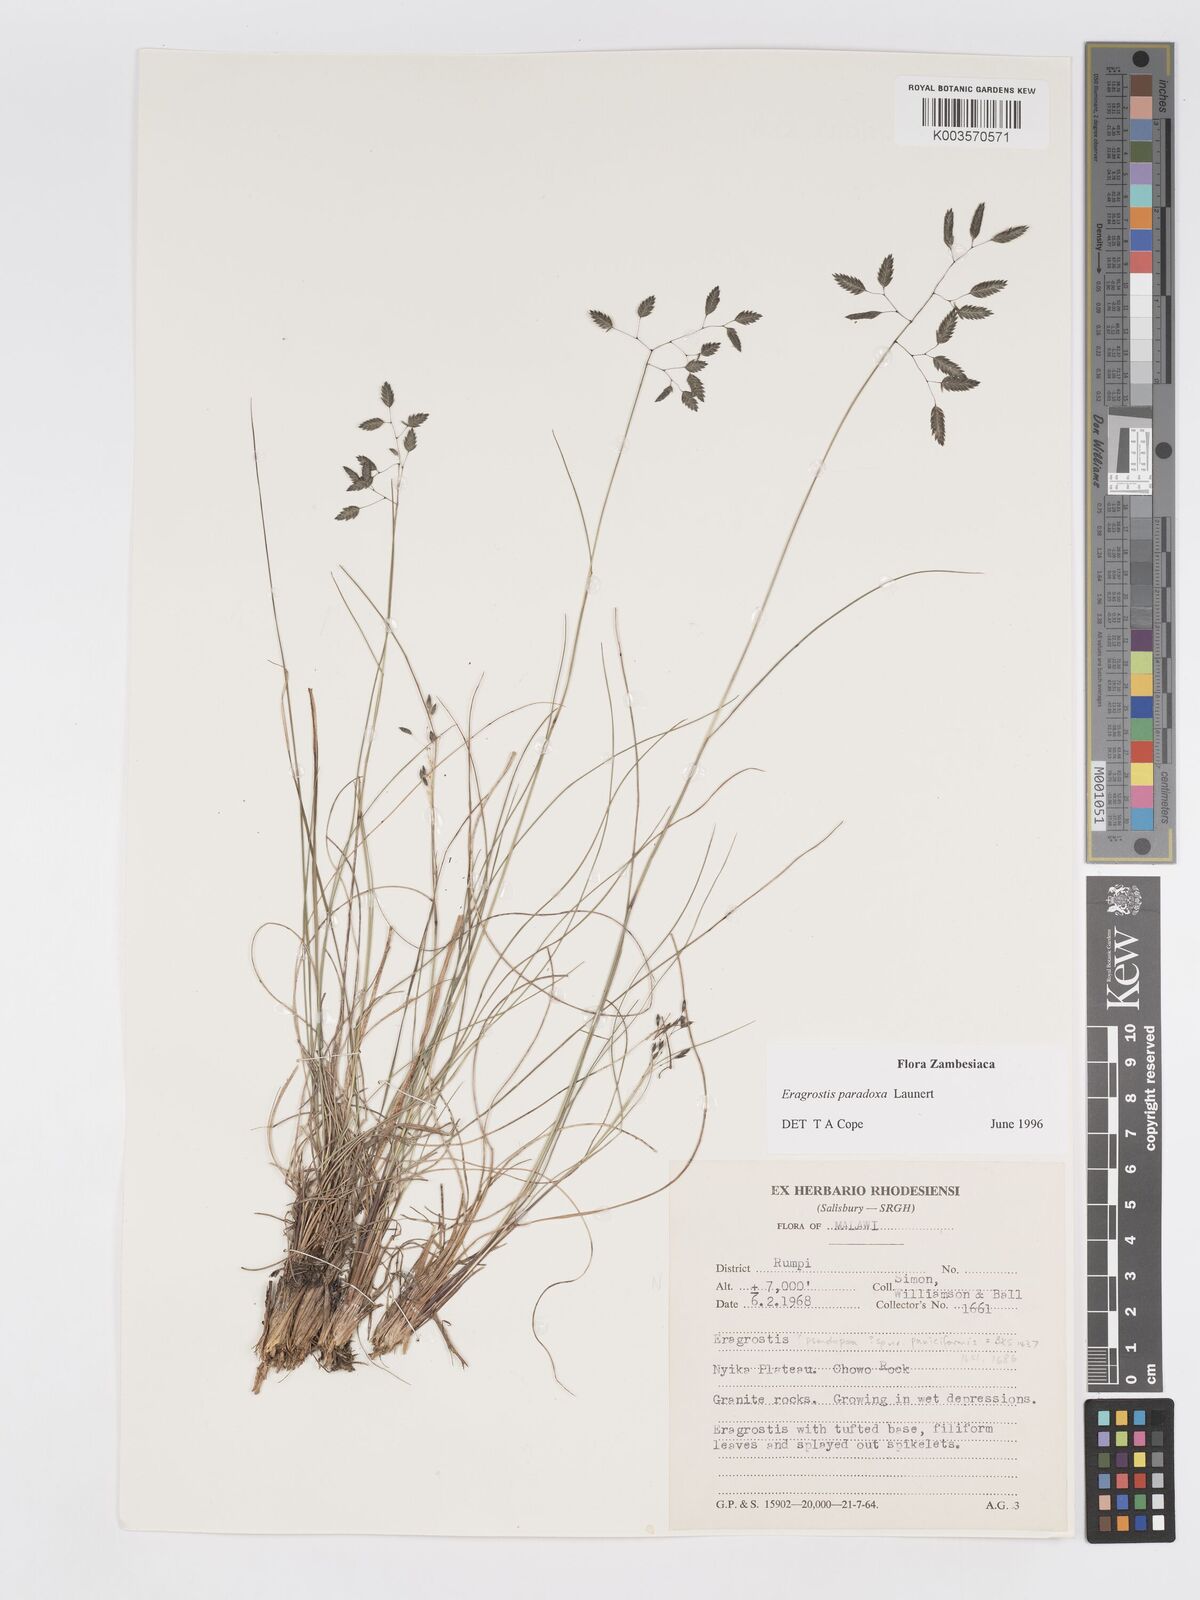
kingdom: Plantae
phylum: Tracheophyta
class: Liliopsida
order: Poales
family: Poaceae
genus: Eragrostis
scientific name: Eragrostis paradoxa
